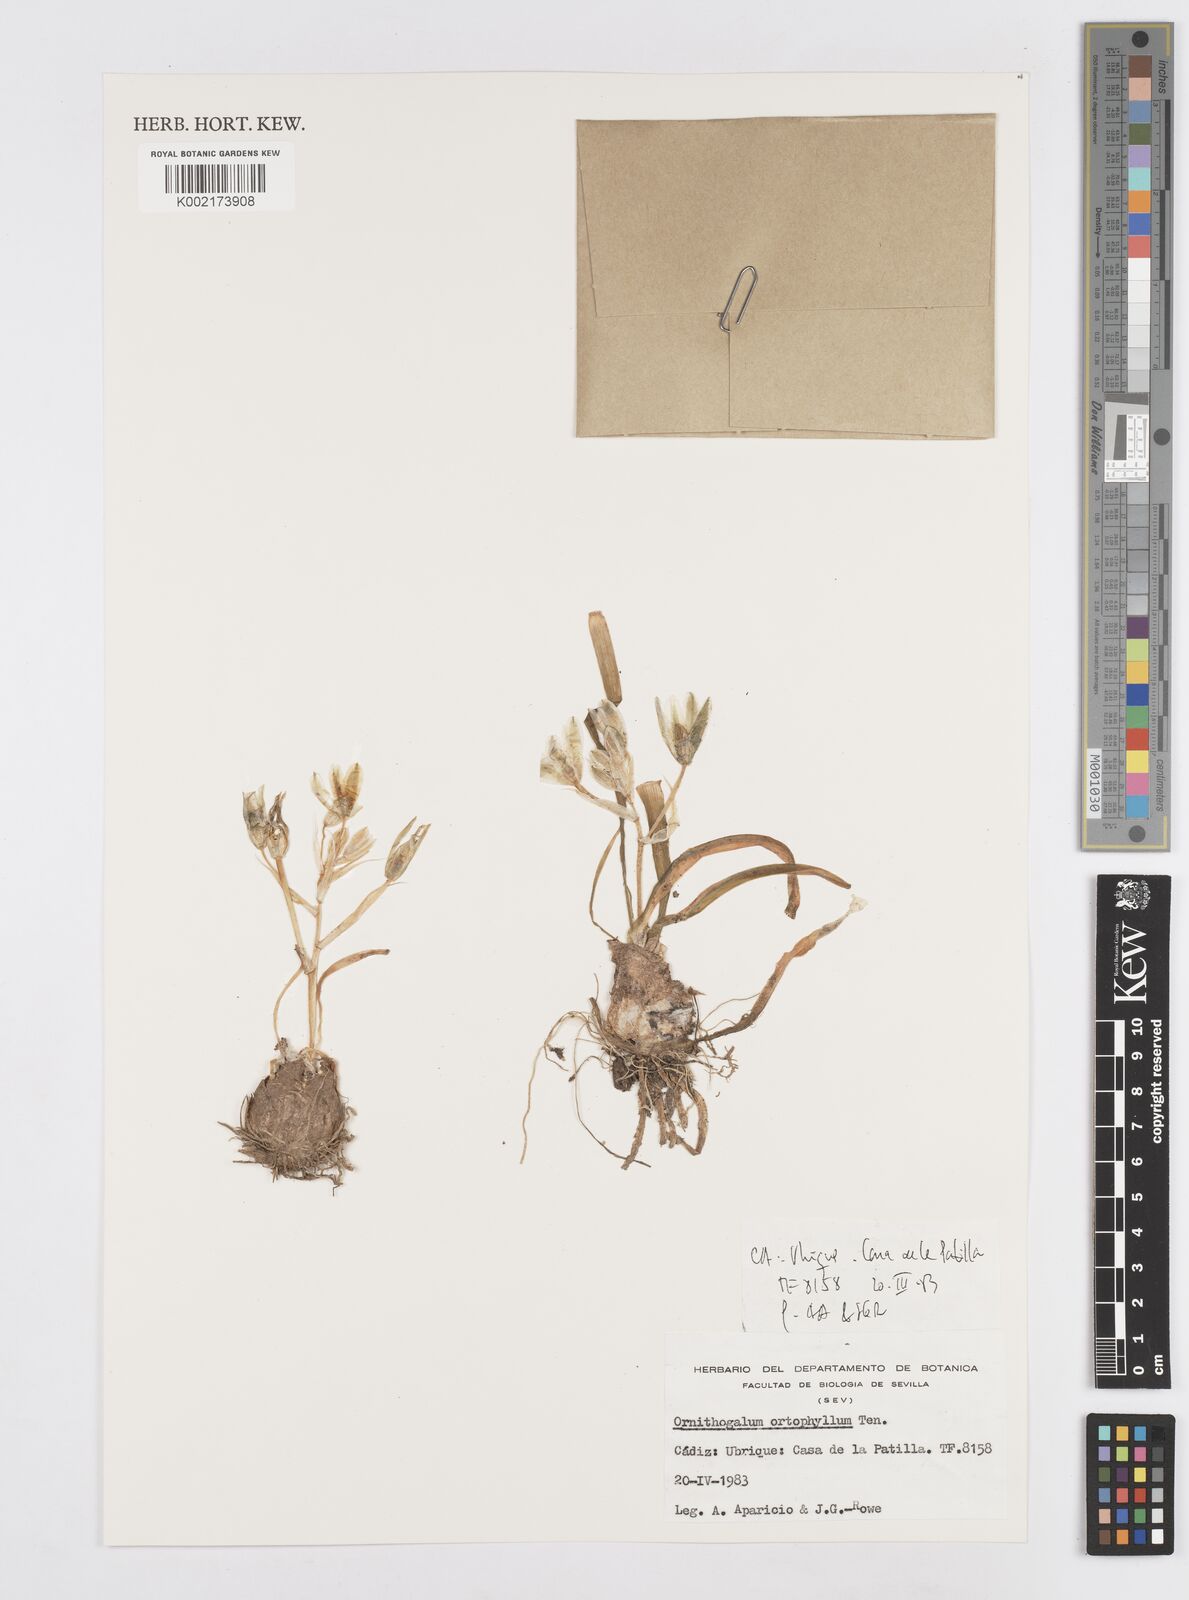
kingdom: Plantae
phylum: Tracheophyta
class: Liliopsida
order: Asparagales
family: Asparagaceae
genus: Ornithogalum
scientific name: Ornithogalum orthophyllum
